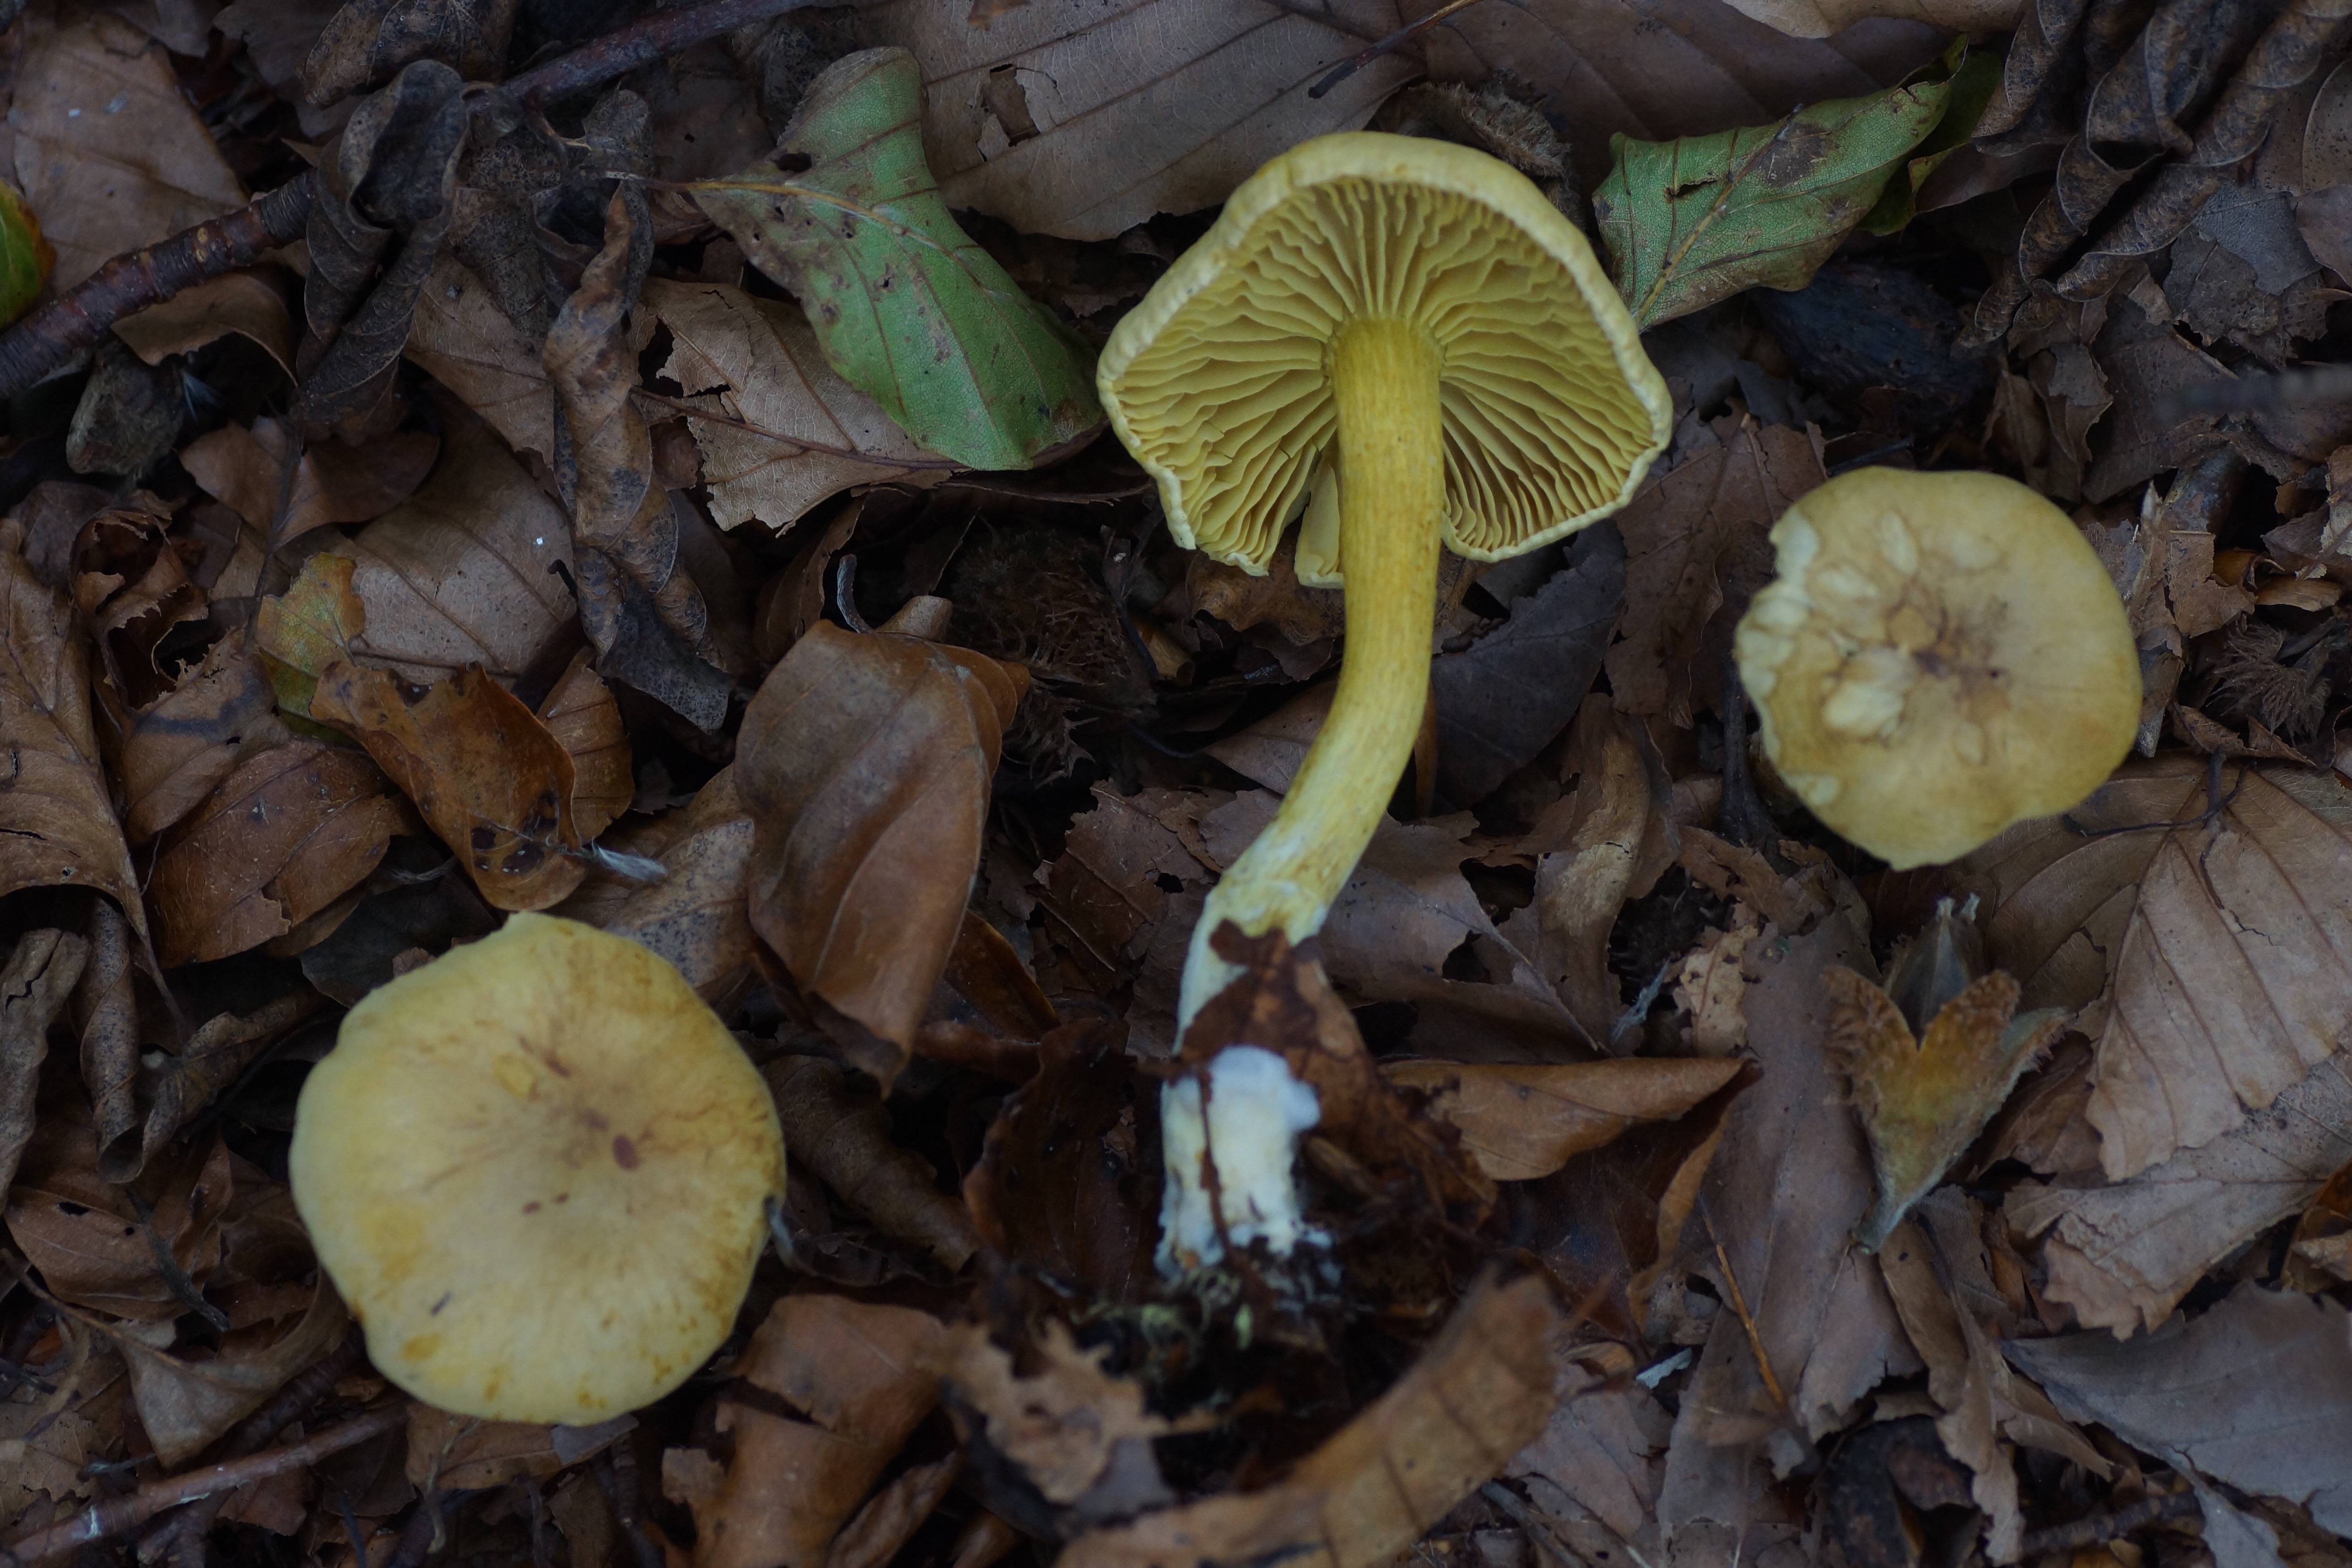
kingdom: Fungi
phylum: Basidiomycota
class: Agaricomycetes
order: Agaricales
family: Tricholomataceae
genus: Tricholoma
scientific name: Tricholoma sulphureum
